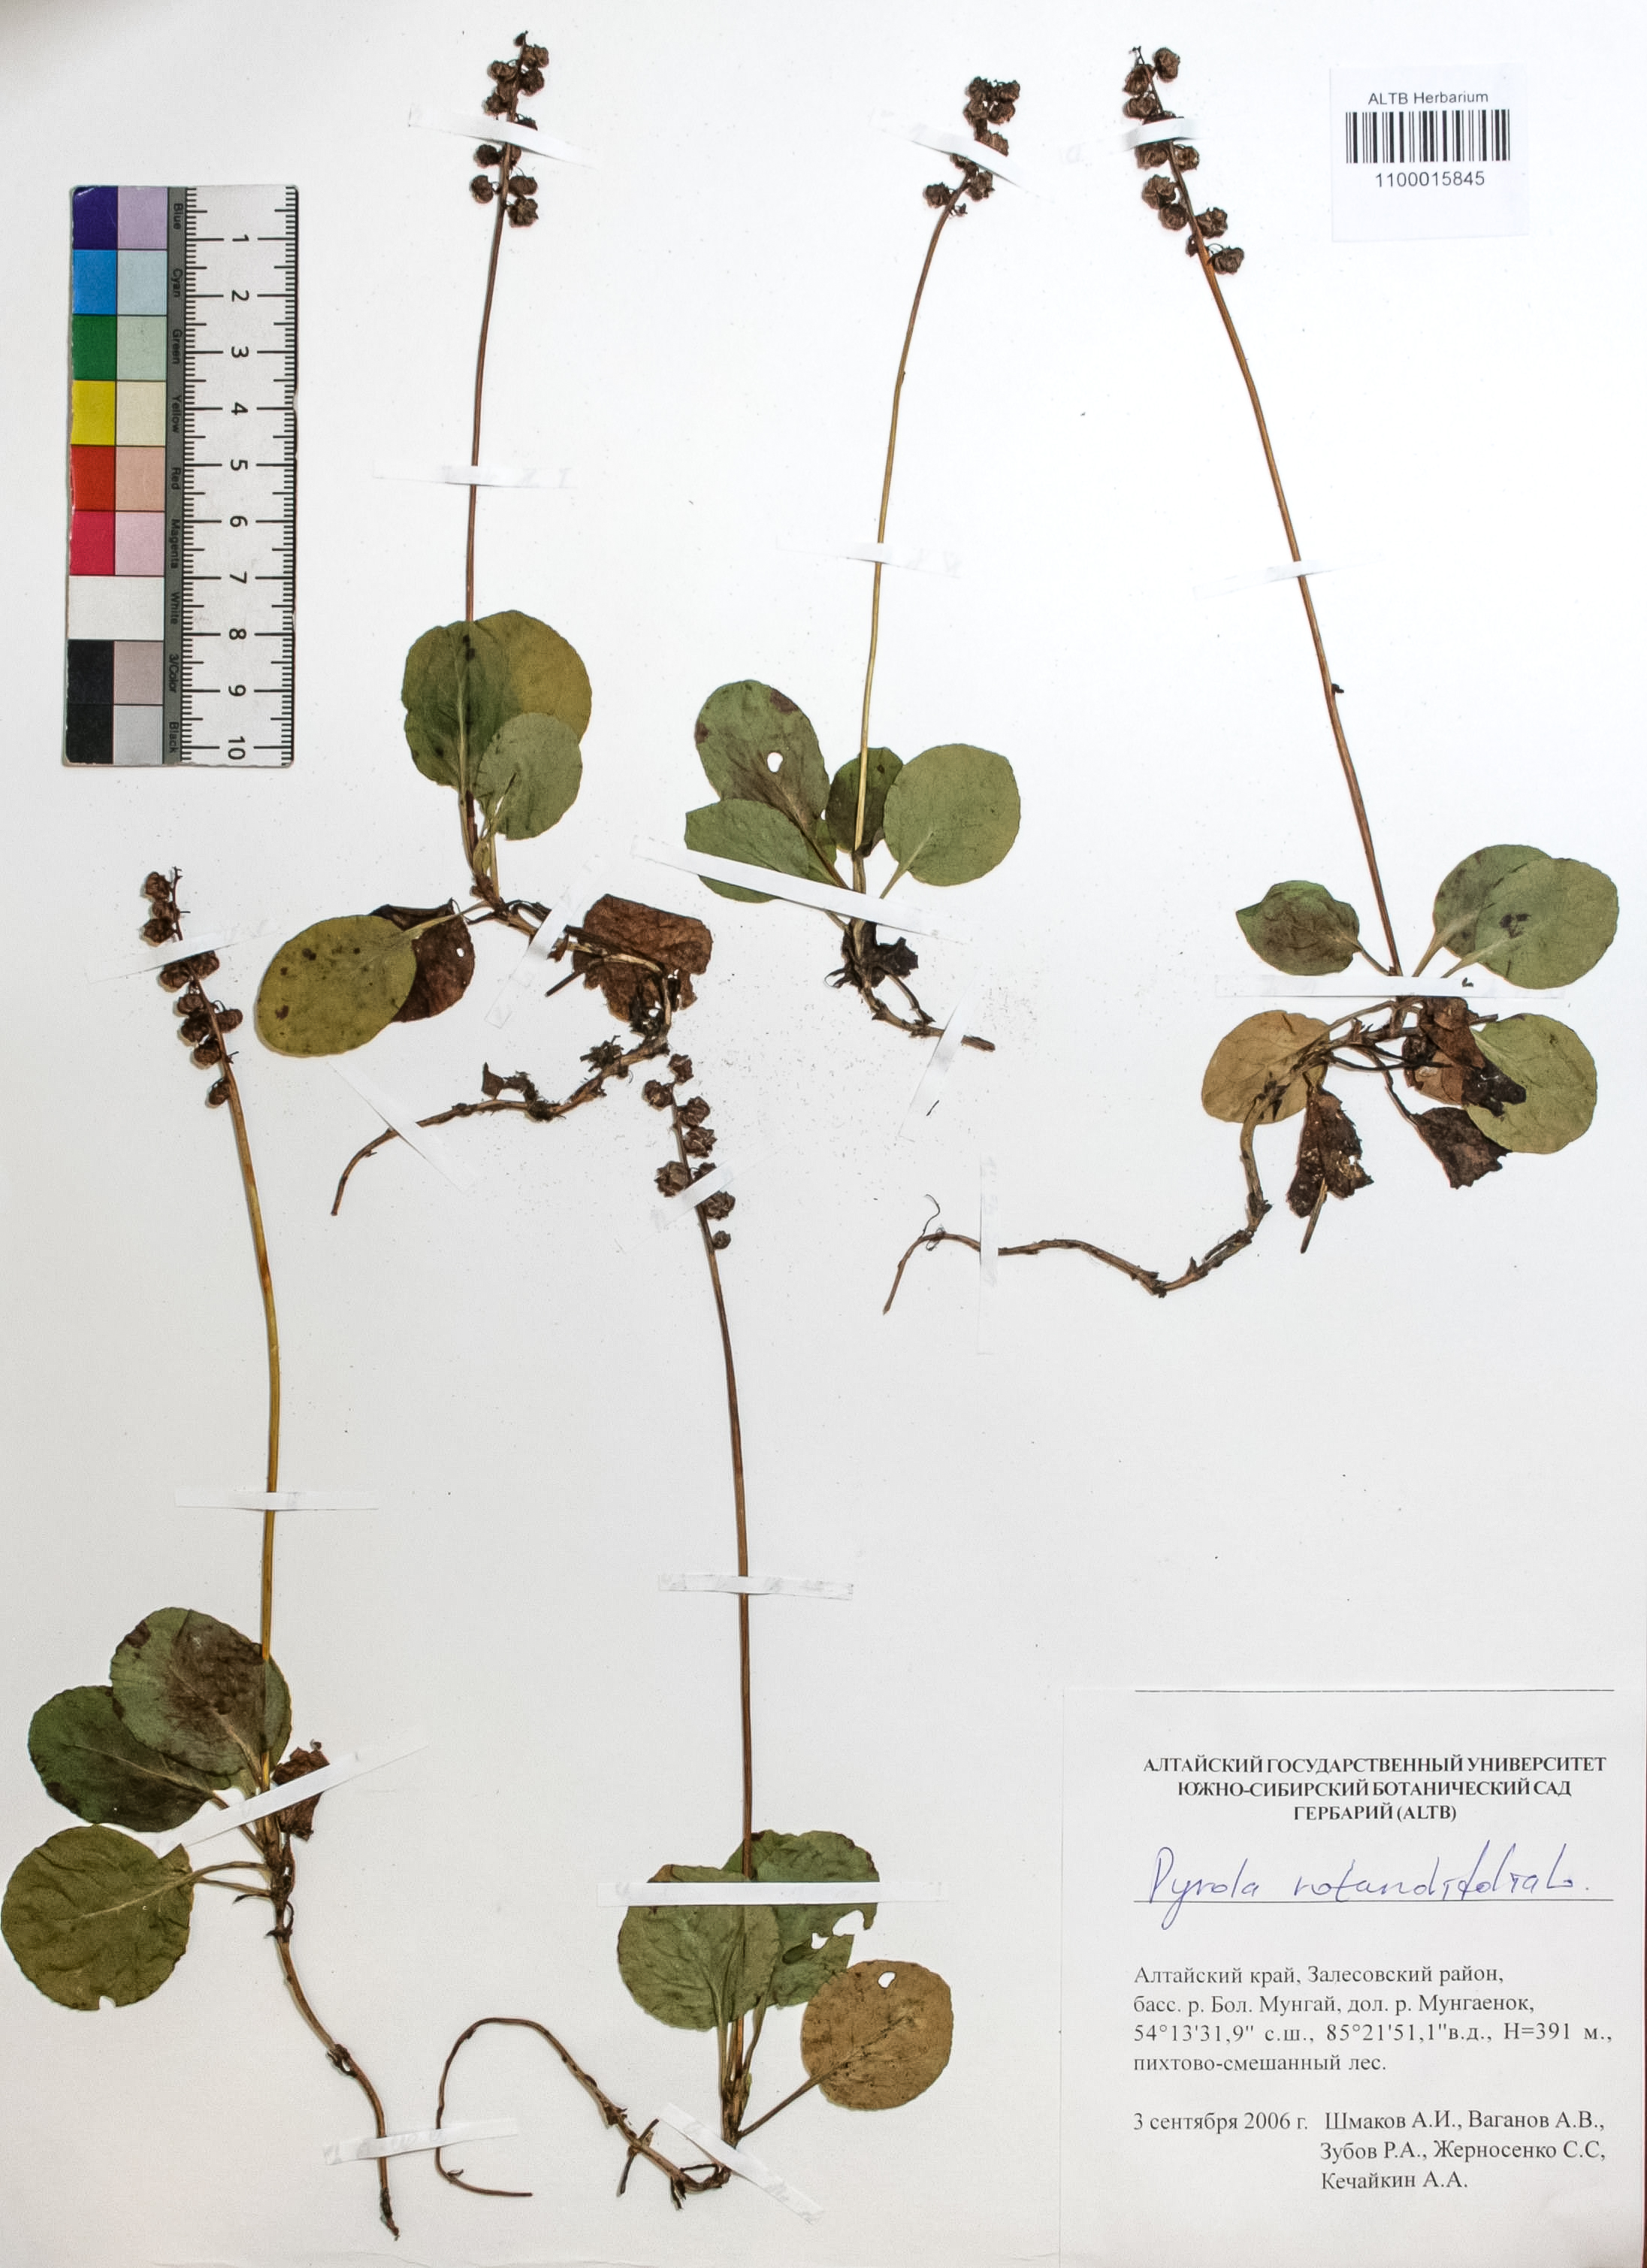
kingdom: Plantae
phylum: Tracheophyta
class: Magnoliopsida
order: Ericales
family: Ericaceae
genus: Pyrola
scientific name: Pyrola rotundifolia
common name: Round-leaved wintergreen
